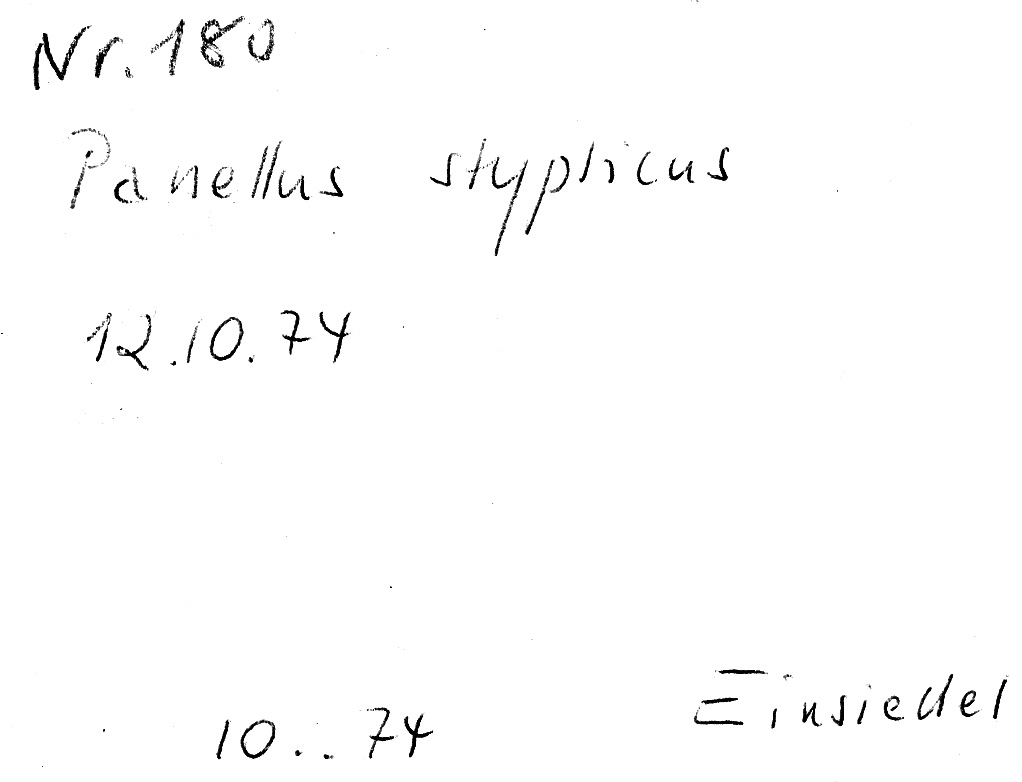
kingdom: Fungi
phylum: Basidiomycota
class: Agaricomycetes
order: Agaricales
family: Mycenaceae
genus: Panellus
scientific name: Panellus stipticus
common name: Bitter oysterling
